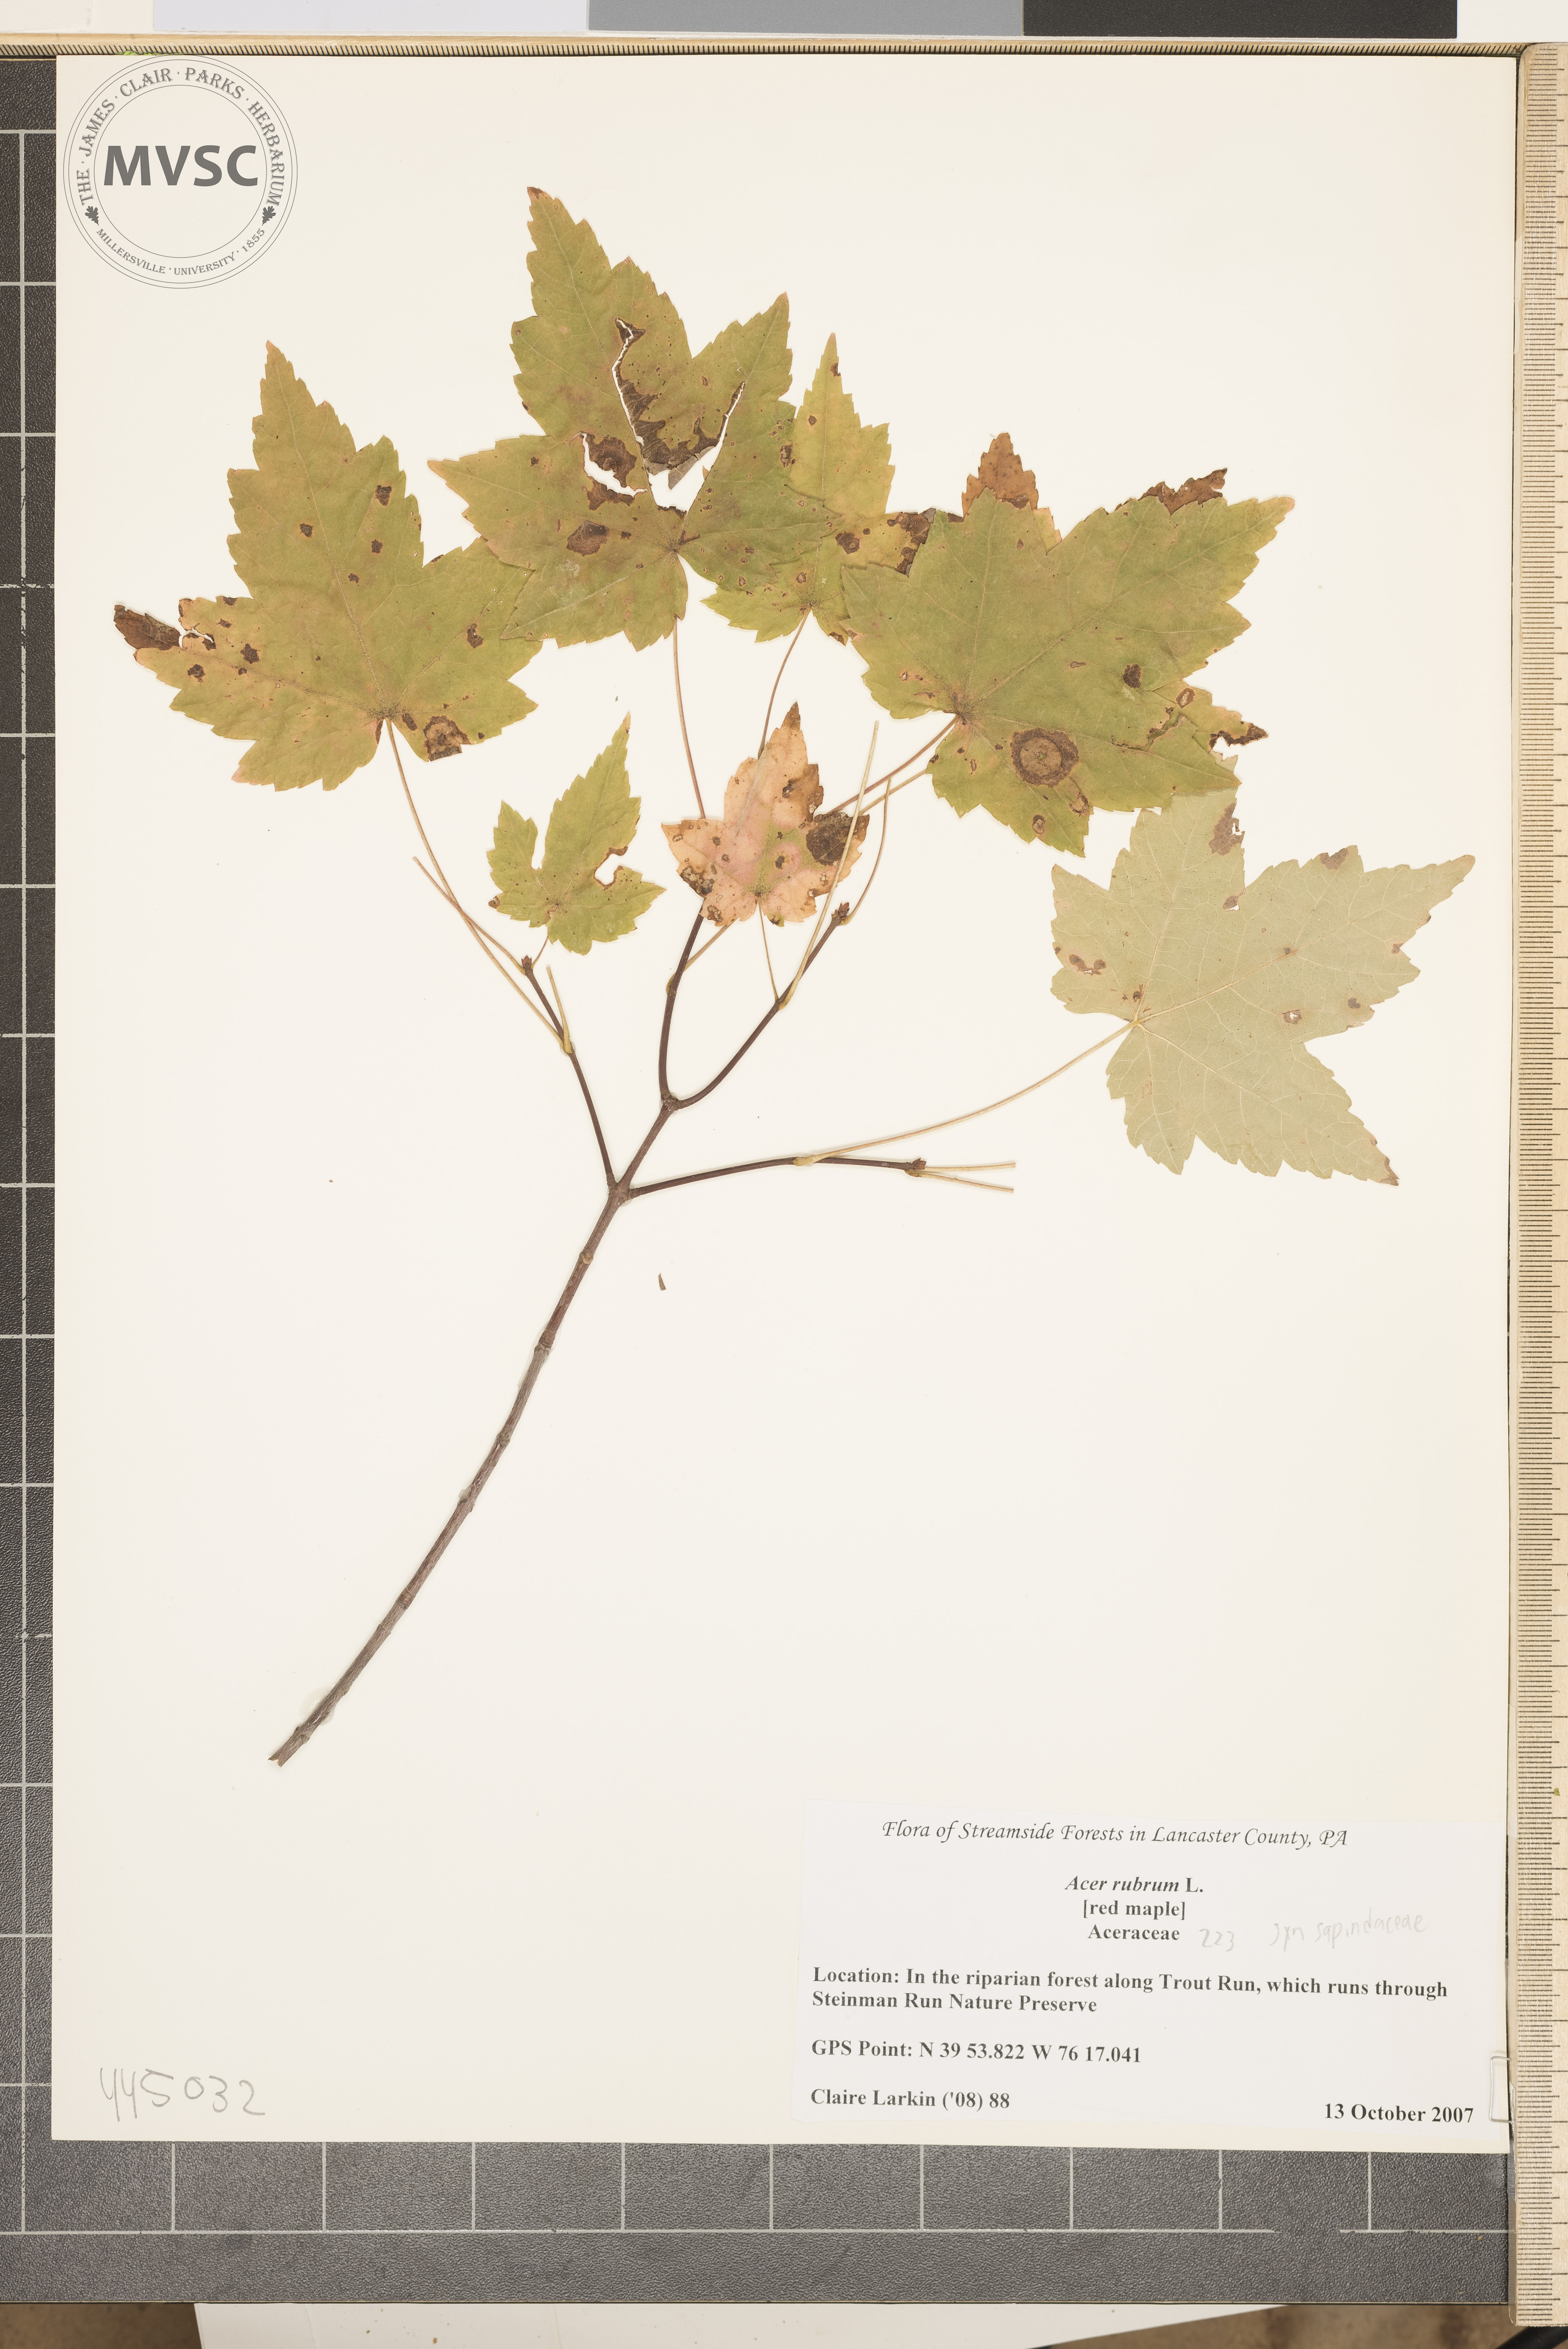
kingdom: Plantae
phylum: Tracheophyta
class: Magnoliopsida
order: Sapindales
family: Sapindaceae
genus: Acer
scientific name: Acer rubrum
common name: Red Maple
